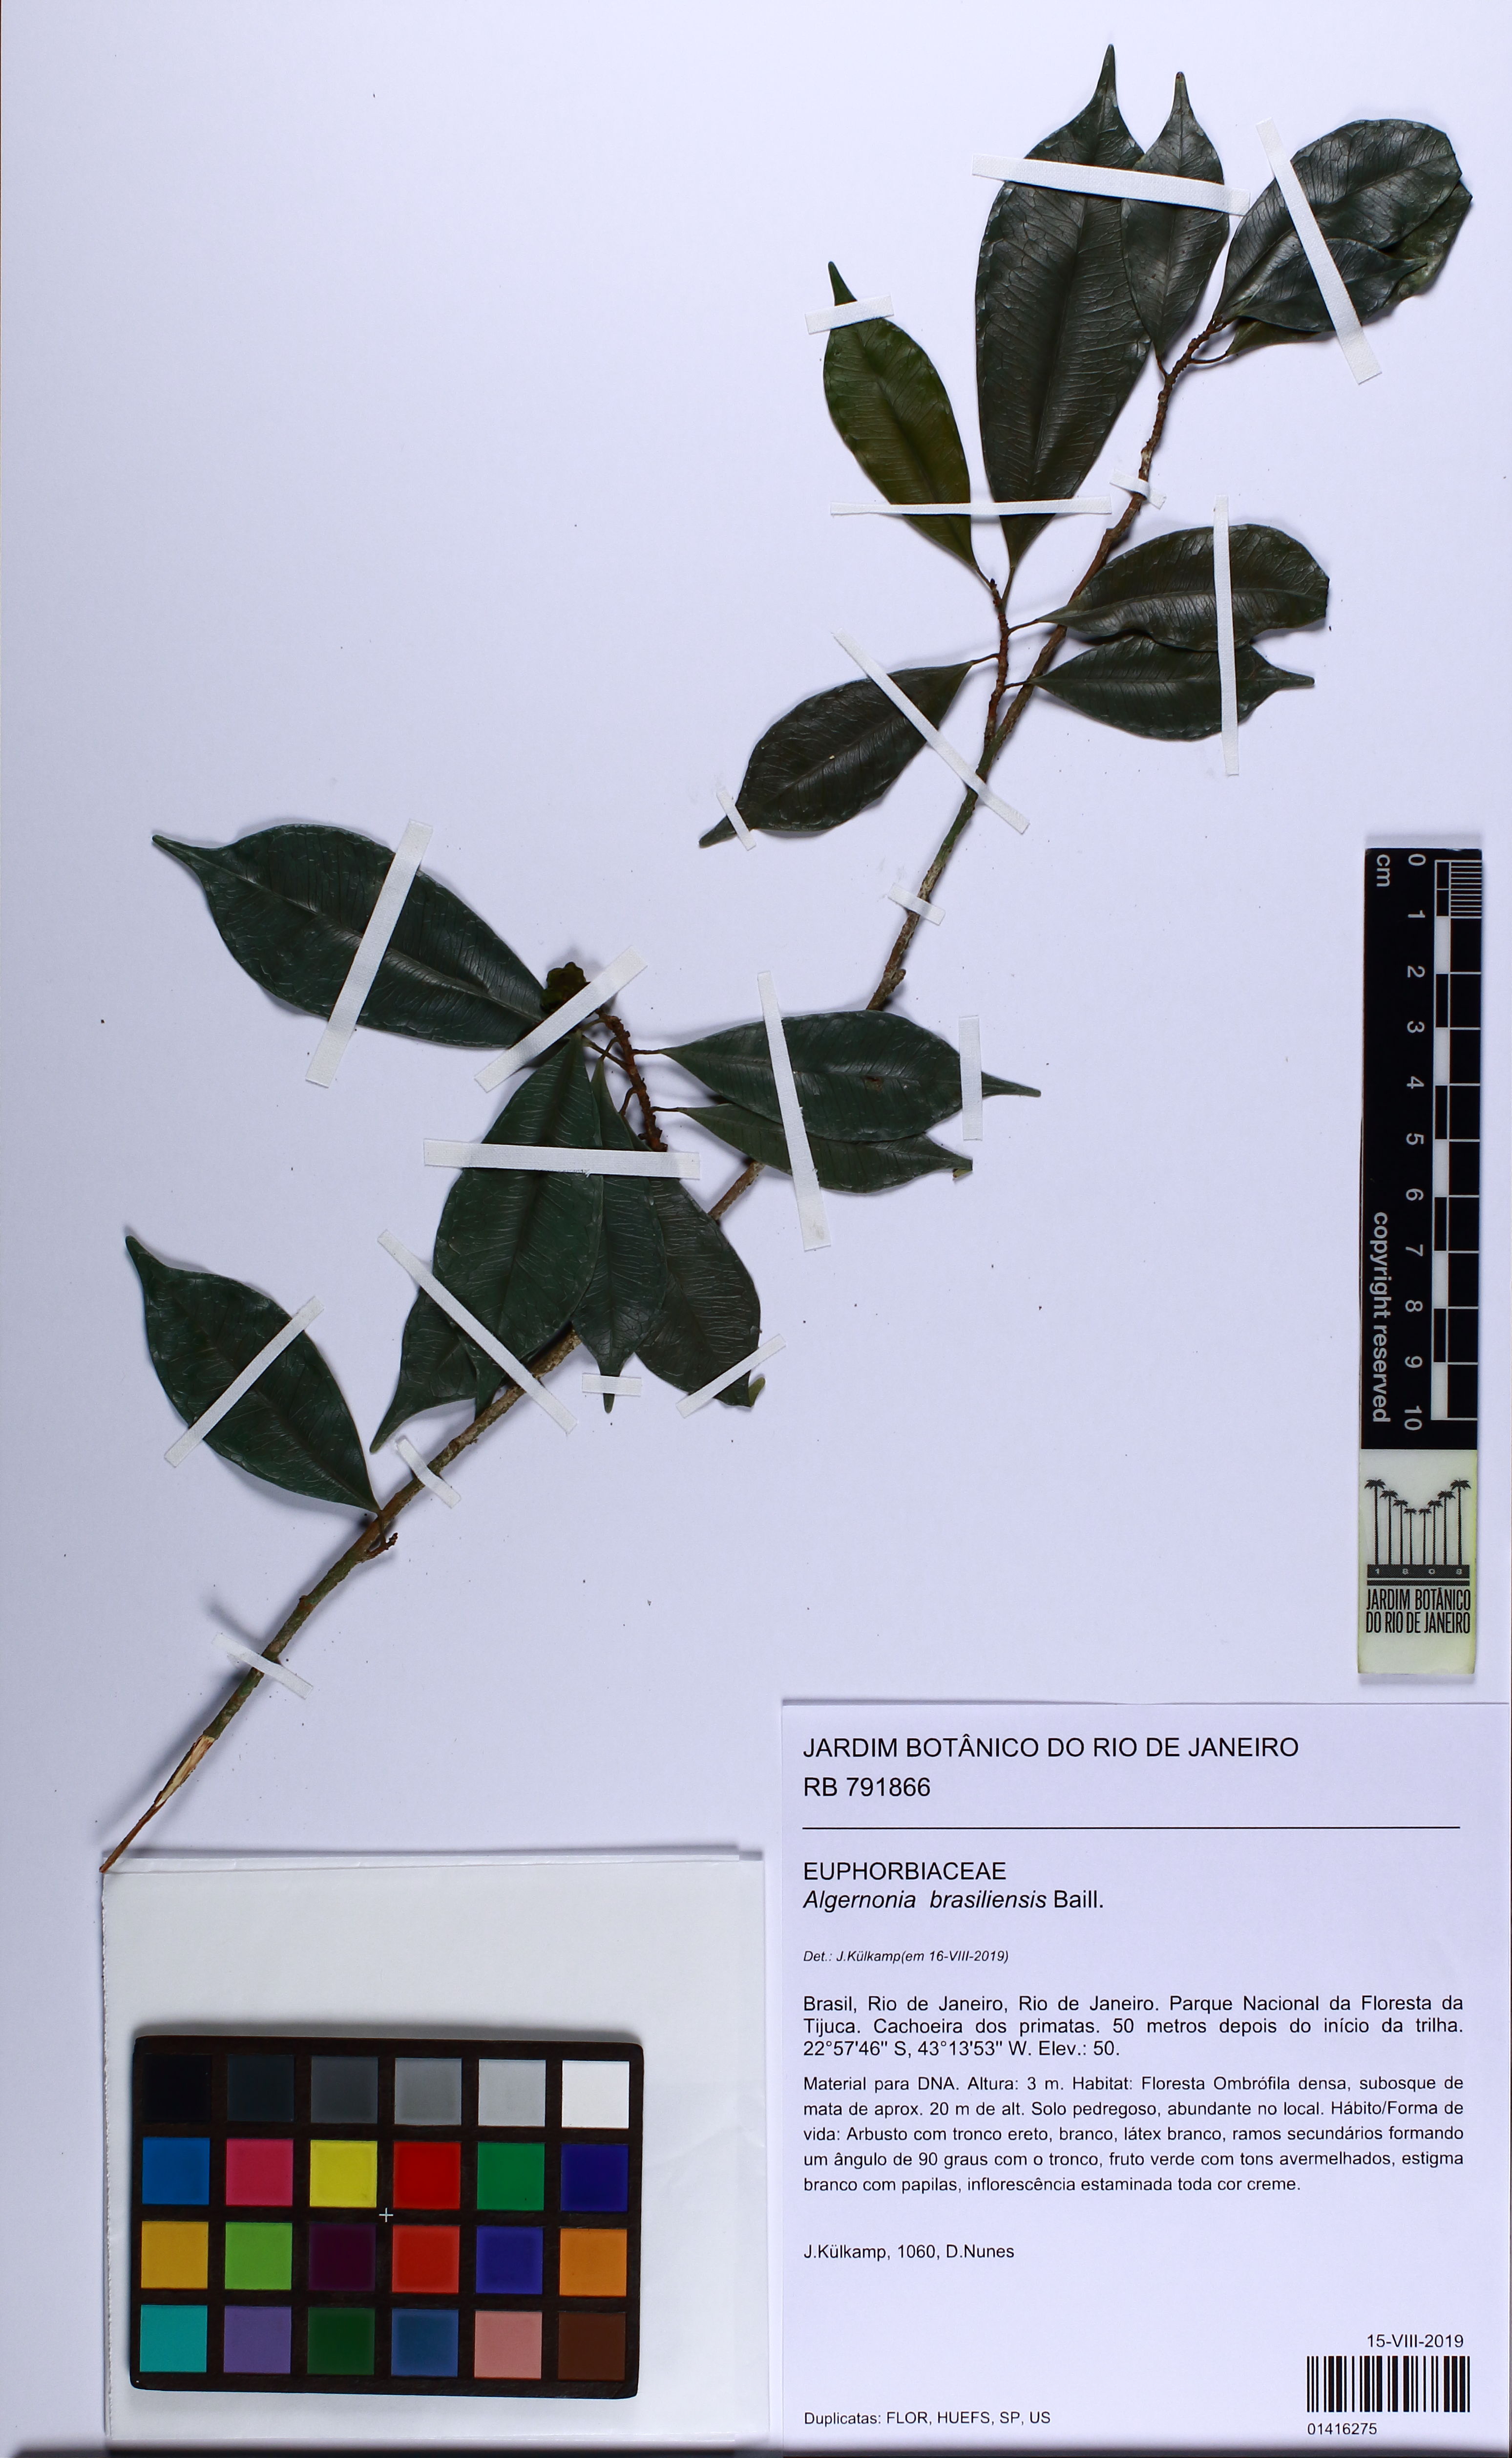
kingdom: Plantae
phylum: Tracheophyta
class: Magnoliopsida
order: Malpighiales
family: Euphorbiaceae
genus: Algernonia
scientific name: Algernonia brasiliensis
